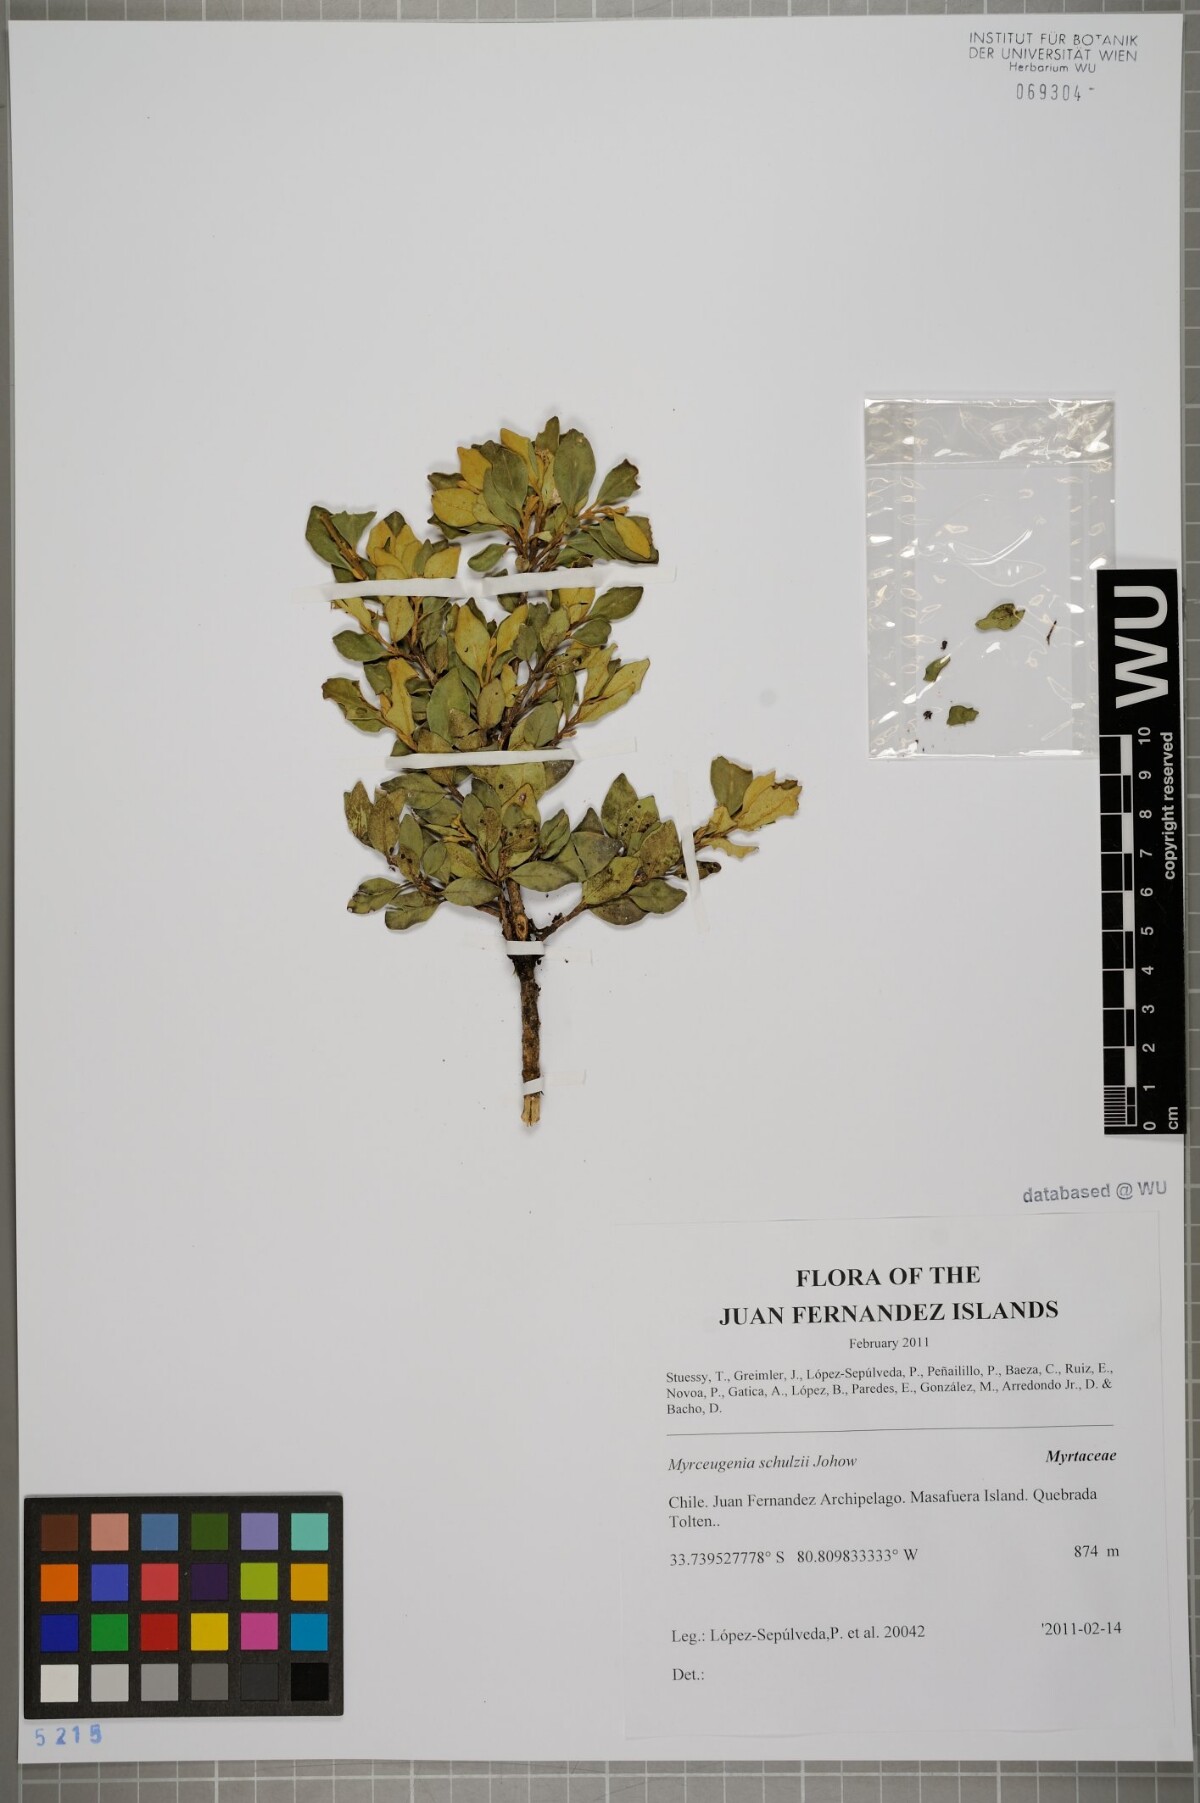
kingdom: Plantae
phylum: Tracheophyta
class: Magnoliopsida
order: Myrtales
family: Myrtaceae
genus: Myrceugenia
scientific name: Myrceugenia schulzei
